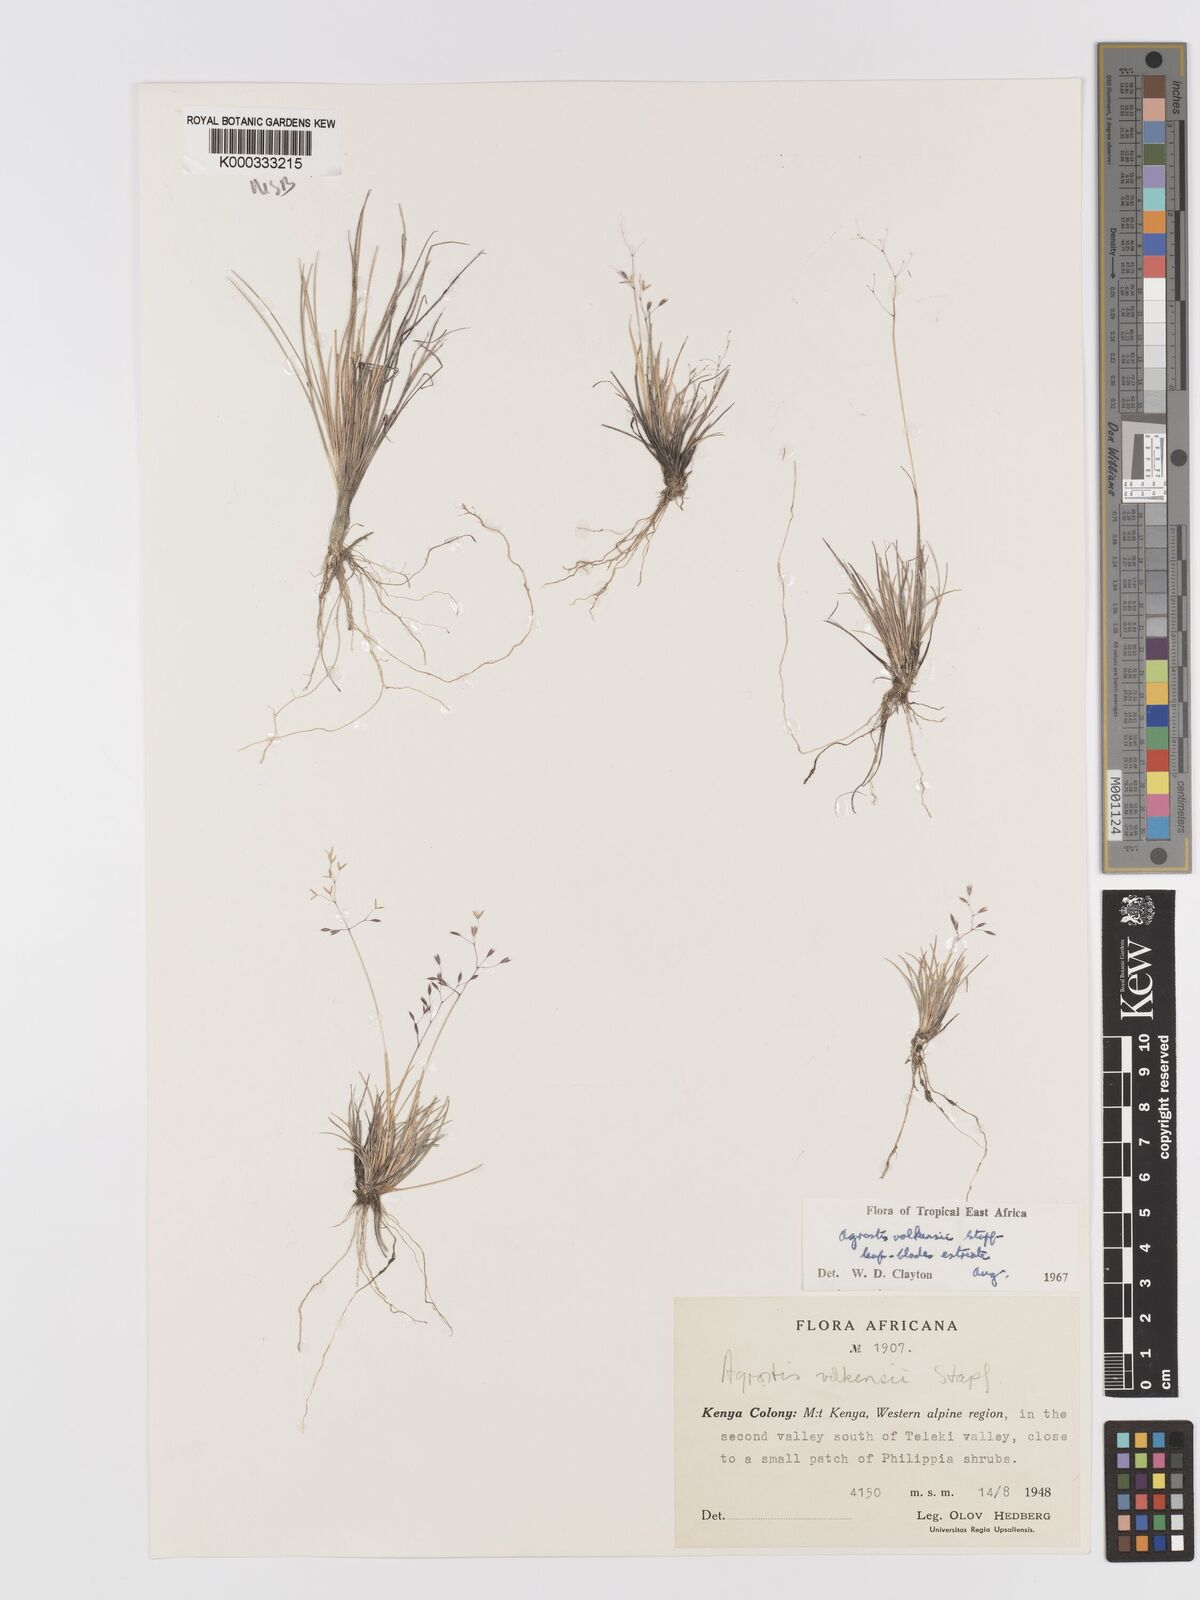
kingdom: Plantae
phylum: Tracheophyta
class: Liliopsida
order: Poales
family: Poaceae
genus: Agrostis
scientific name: Agrostis volkensii
